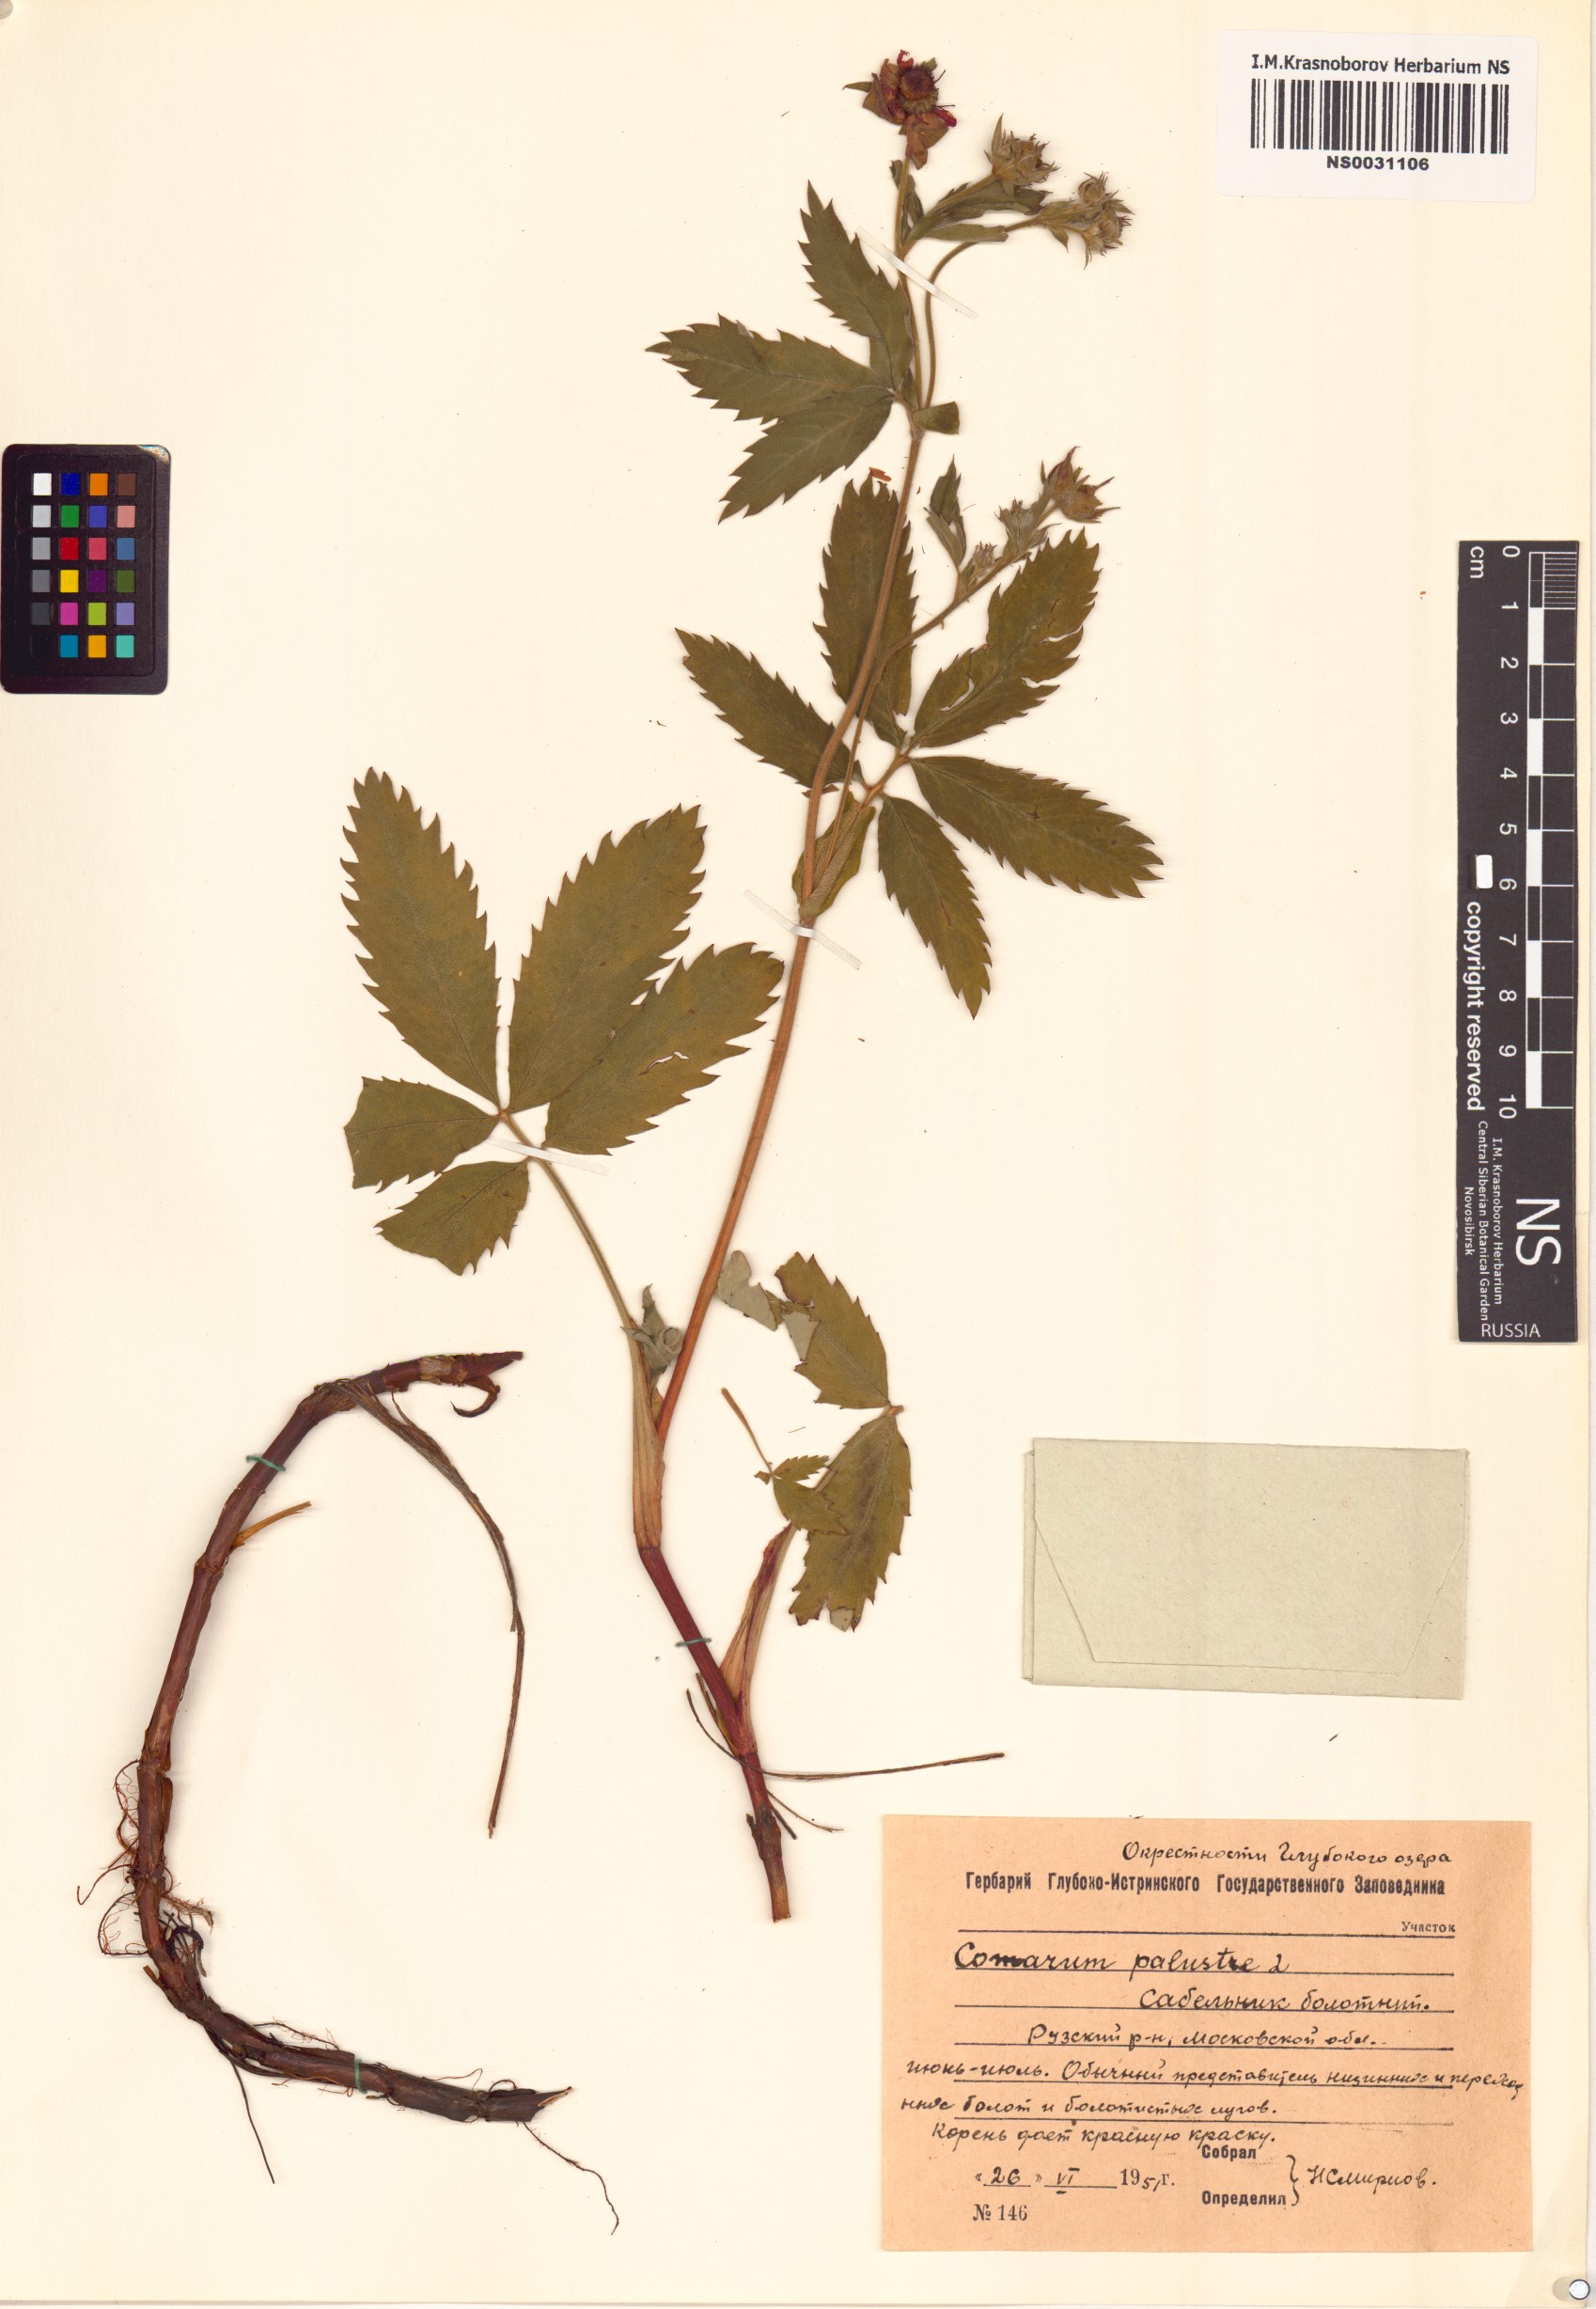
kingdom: Plantae
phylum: Tracheophyta
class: Magnoliopsida
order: Rosales
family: Rosaceae
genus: Comarum
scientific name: Comarum palustre
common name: Marsh cinquefoil
